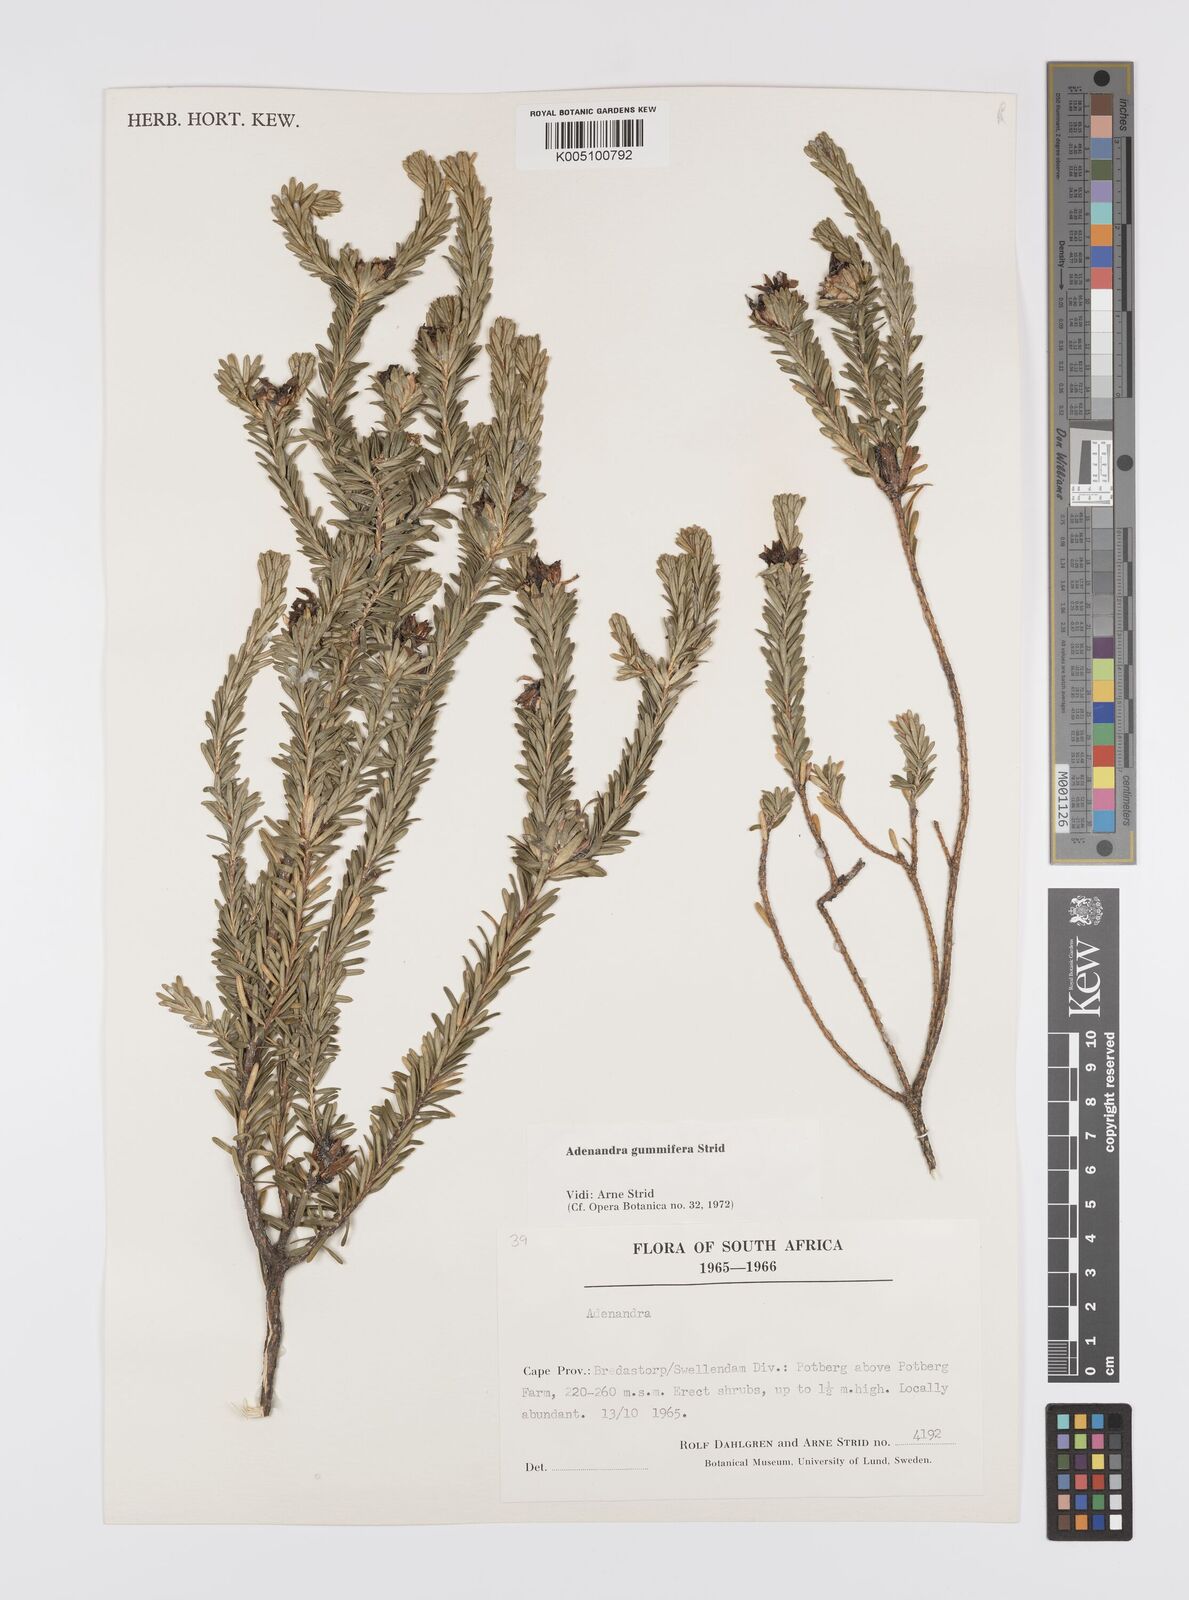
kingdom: Plantae
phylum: Tracheophyta
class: Magnoliopsida
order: Sapindales
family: Rutaceae
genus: Adenandra
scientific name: Adenandra gummifera
